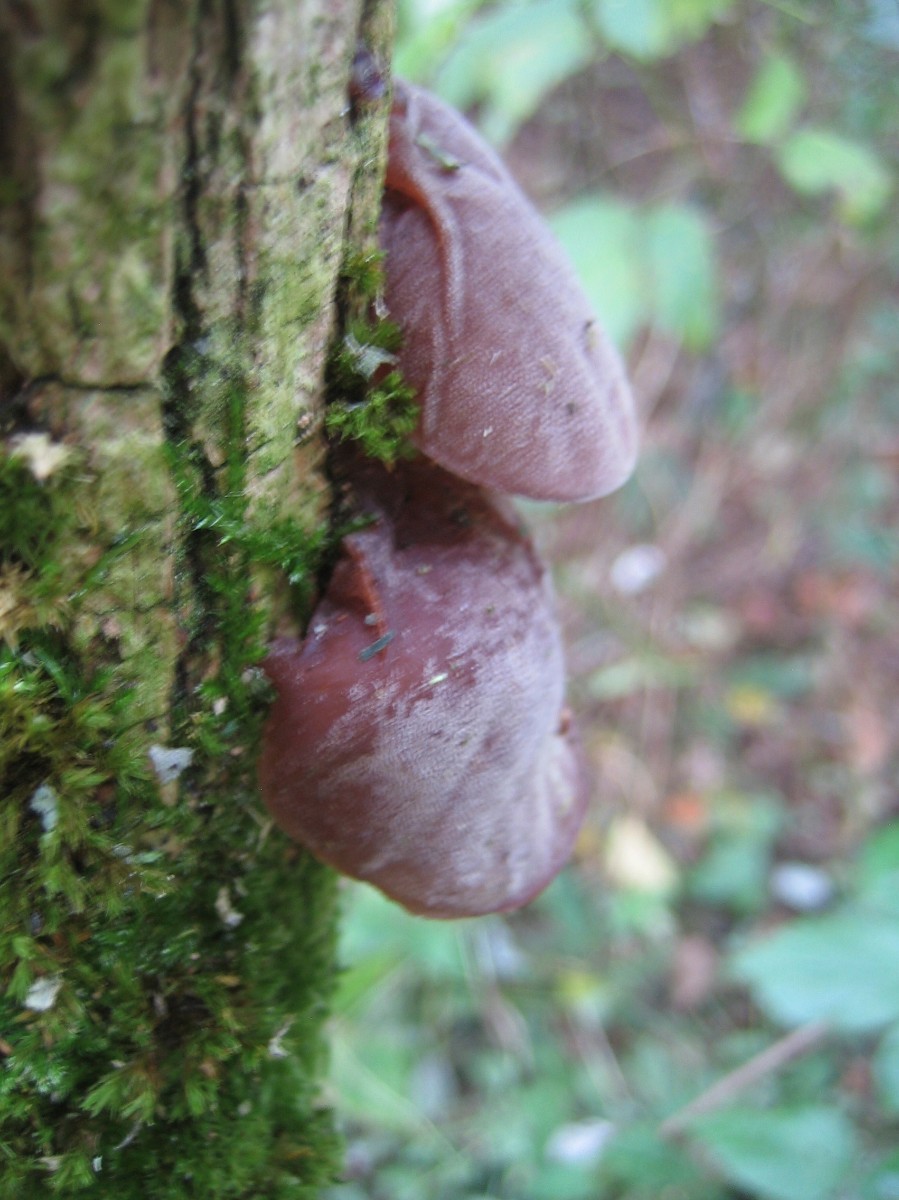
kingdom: Fungi
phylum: Basidiomycota
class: Agaricomycetes
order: Auriculariales
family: Auriculariaceae
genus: Auricularia
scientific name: Auricularia auricula-judae
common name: almindelig judasøre
